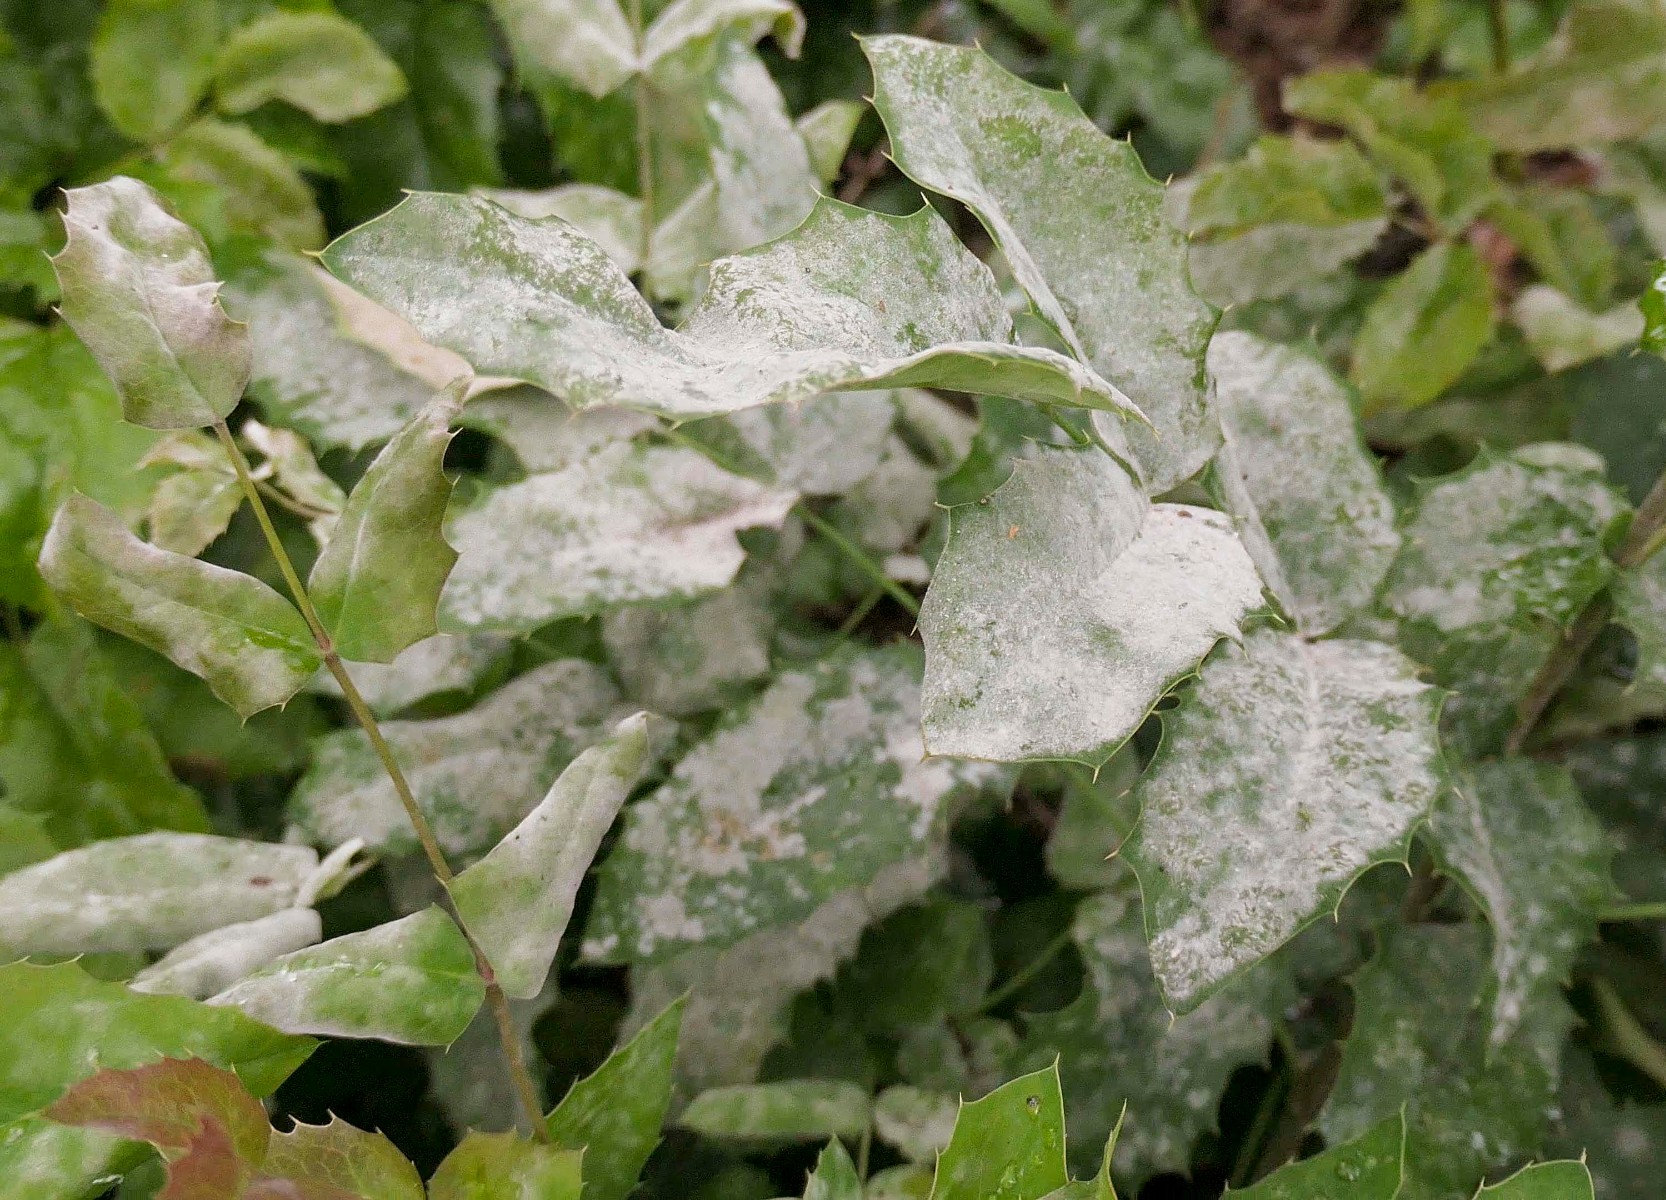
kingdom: Fungi
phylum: Ascomycota
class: Leotiomycetes
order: Helotiales
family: Erysiphaceae
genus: Erysiphe
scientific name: Erysiphe berberidis
